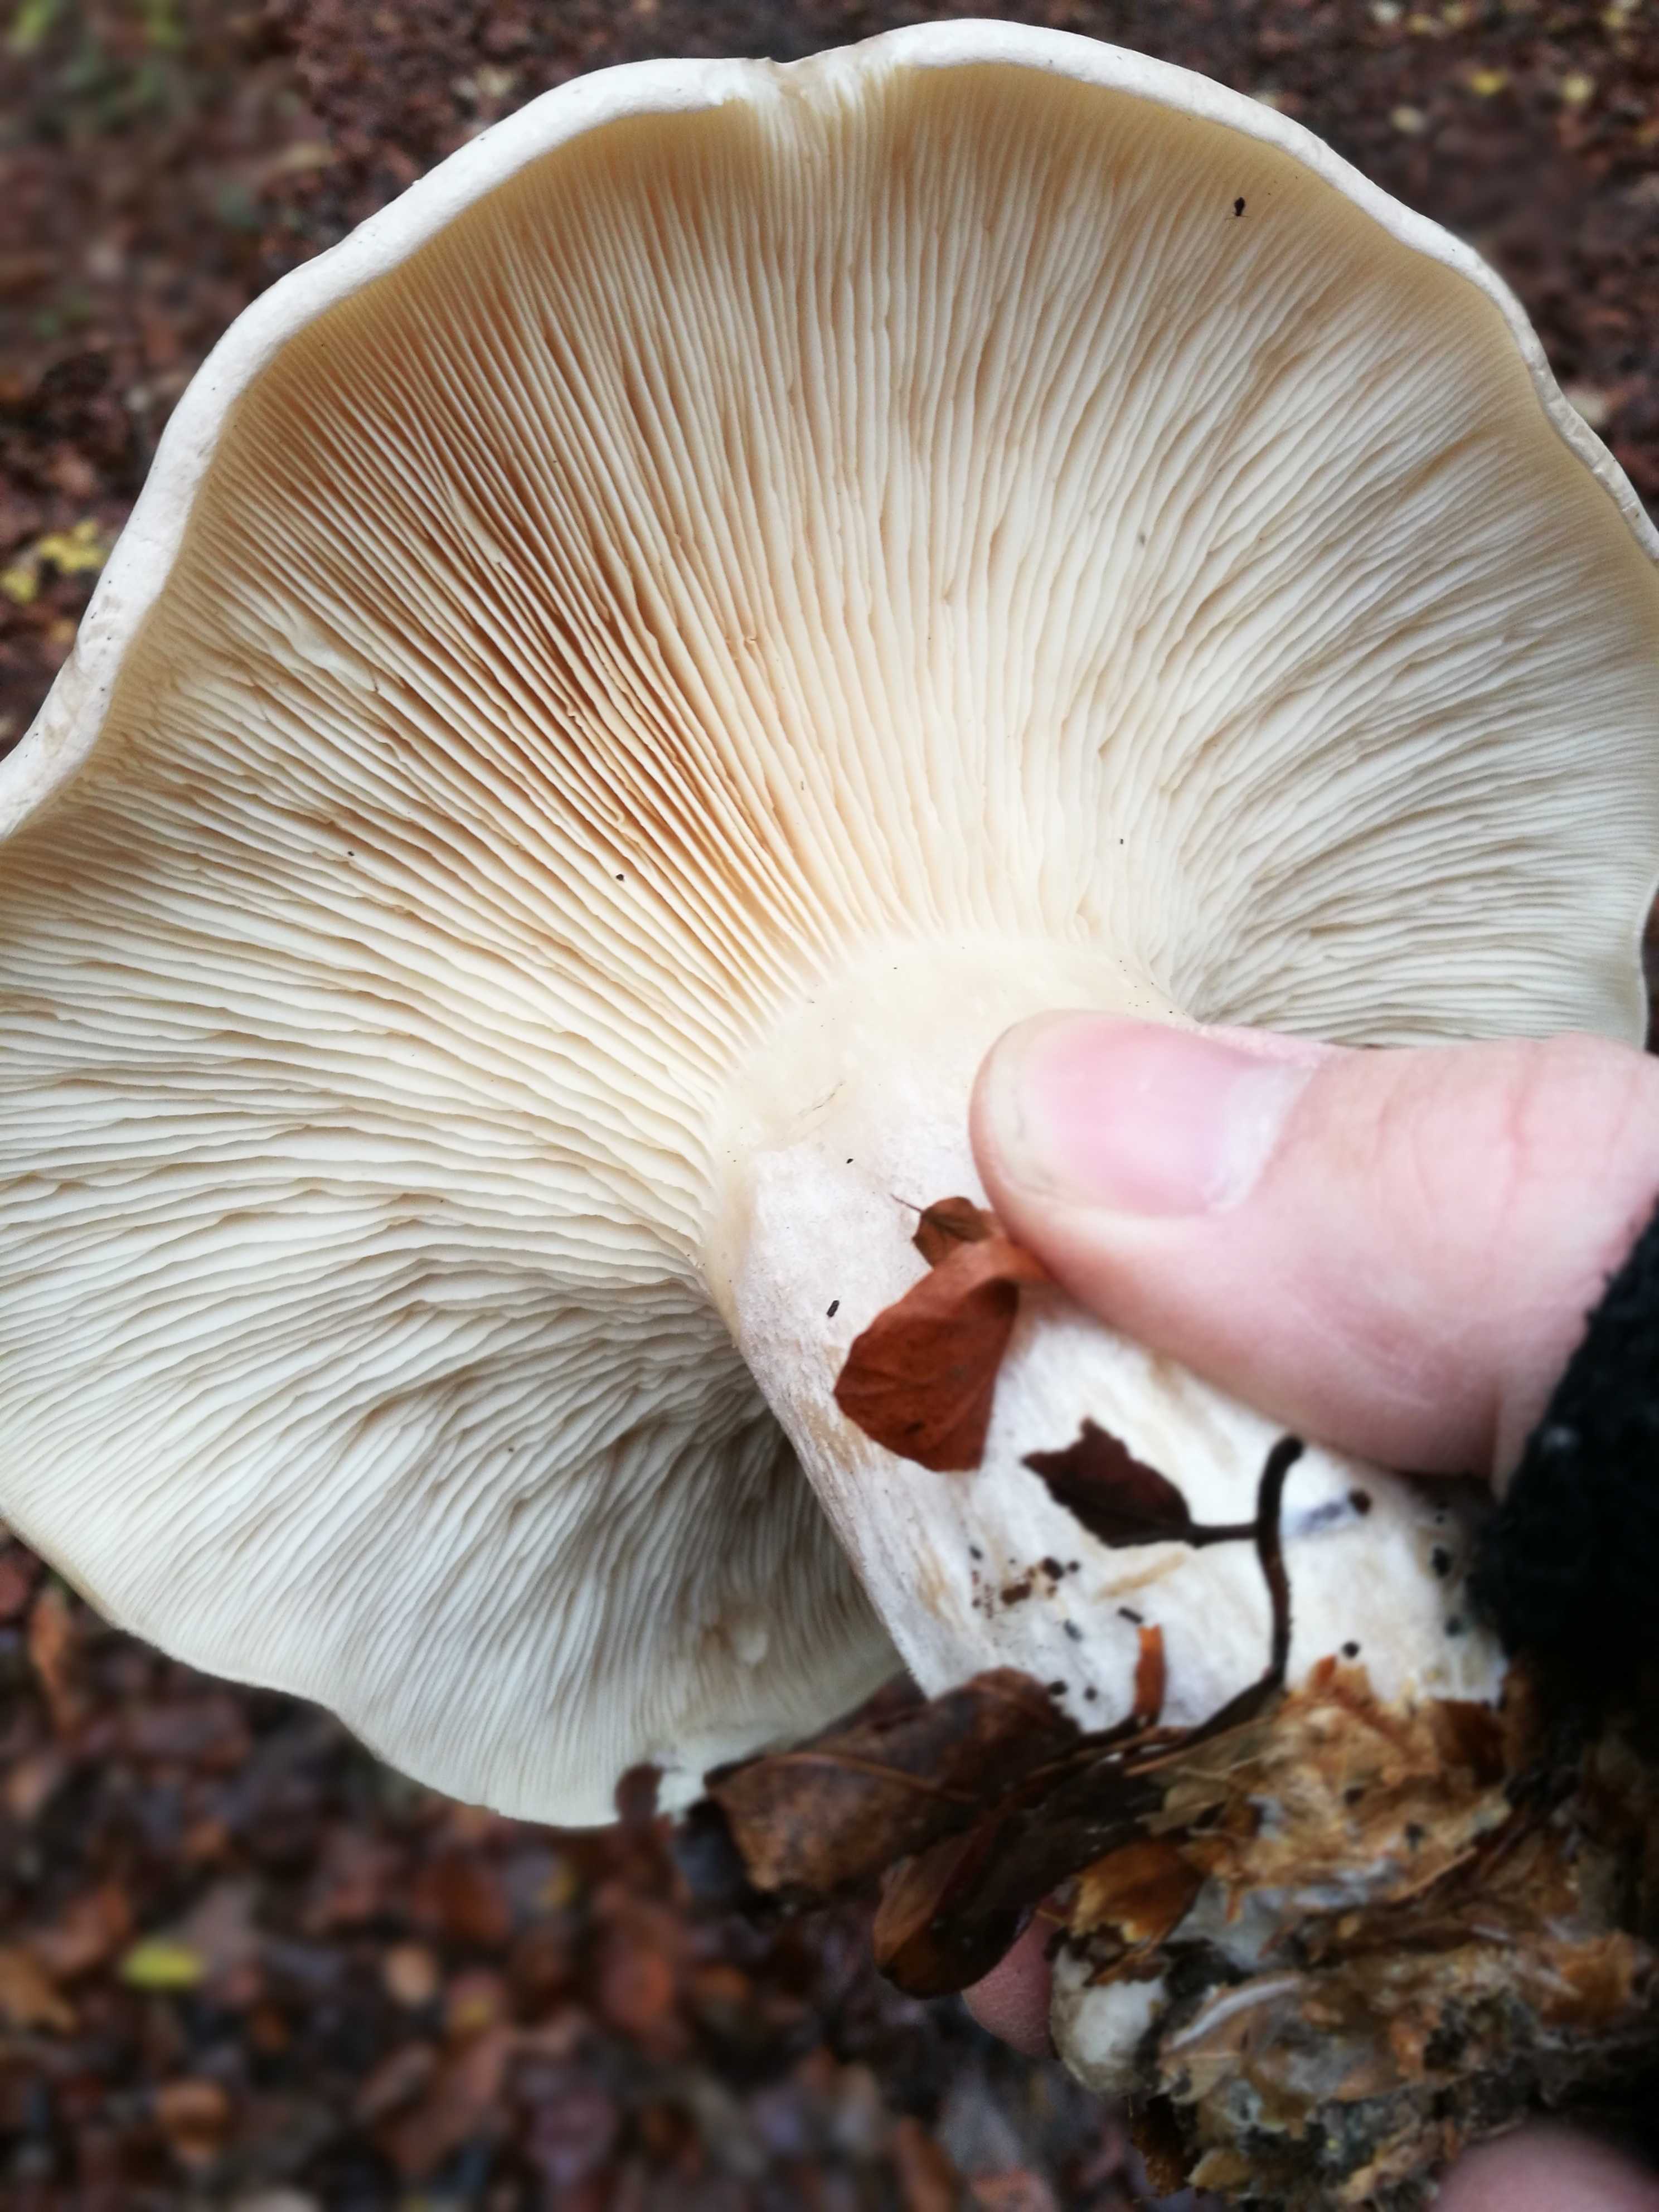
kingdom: Fungi
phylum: Basidiomycota
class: Agaricomycetes
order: Agaricales
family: Tricholomataceae
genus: Clitocybe
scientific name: Clitocybe nebularis
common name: tåge-tragthat
